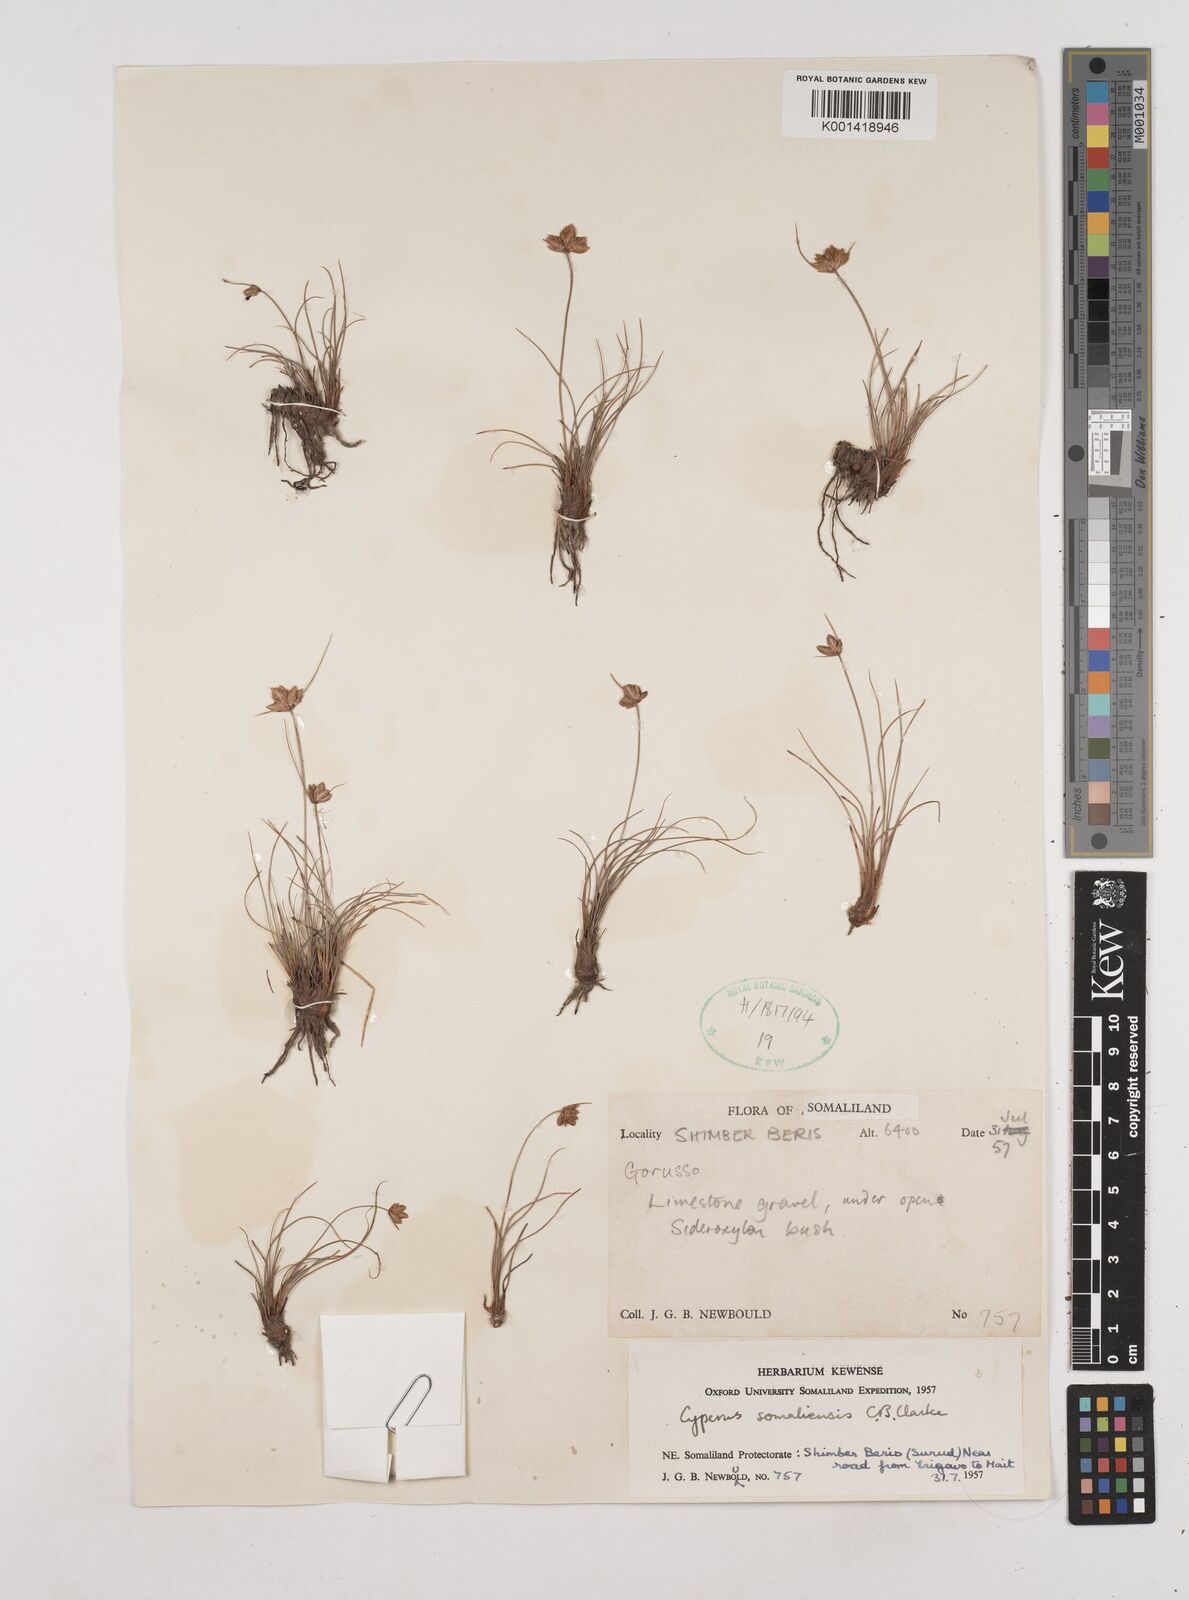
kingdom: Plantae
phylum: Tracheophyta
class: Liliopsida
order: Poales
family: Cyperaceae
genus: Cyperus
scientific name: Cyperus somaliensis
